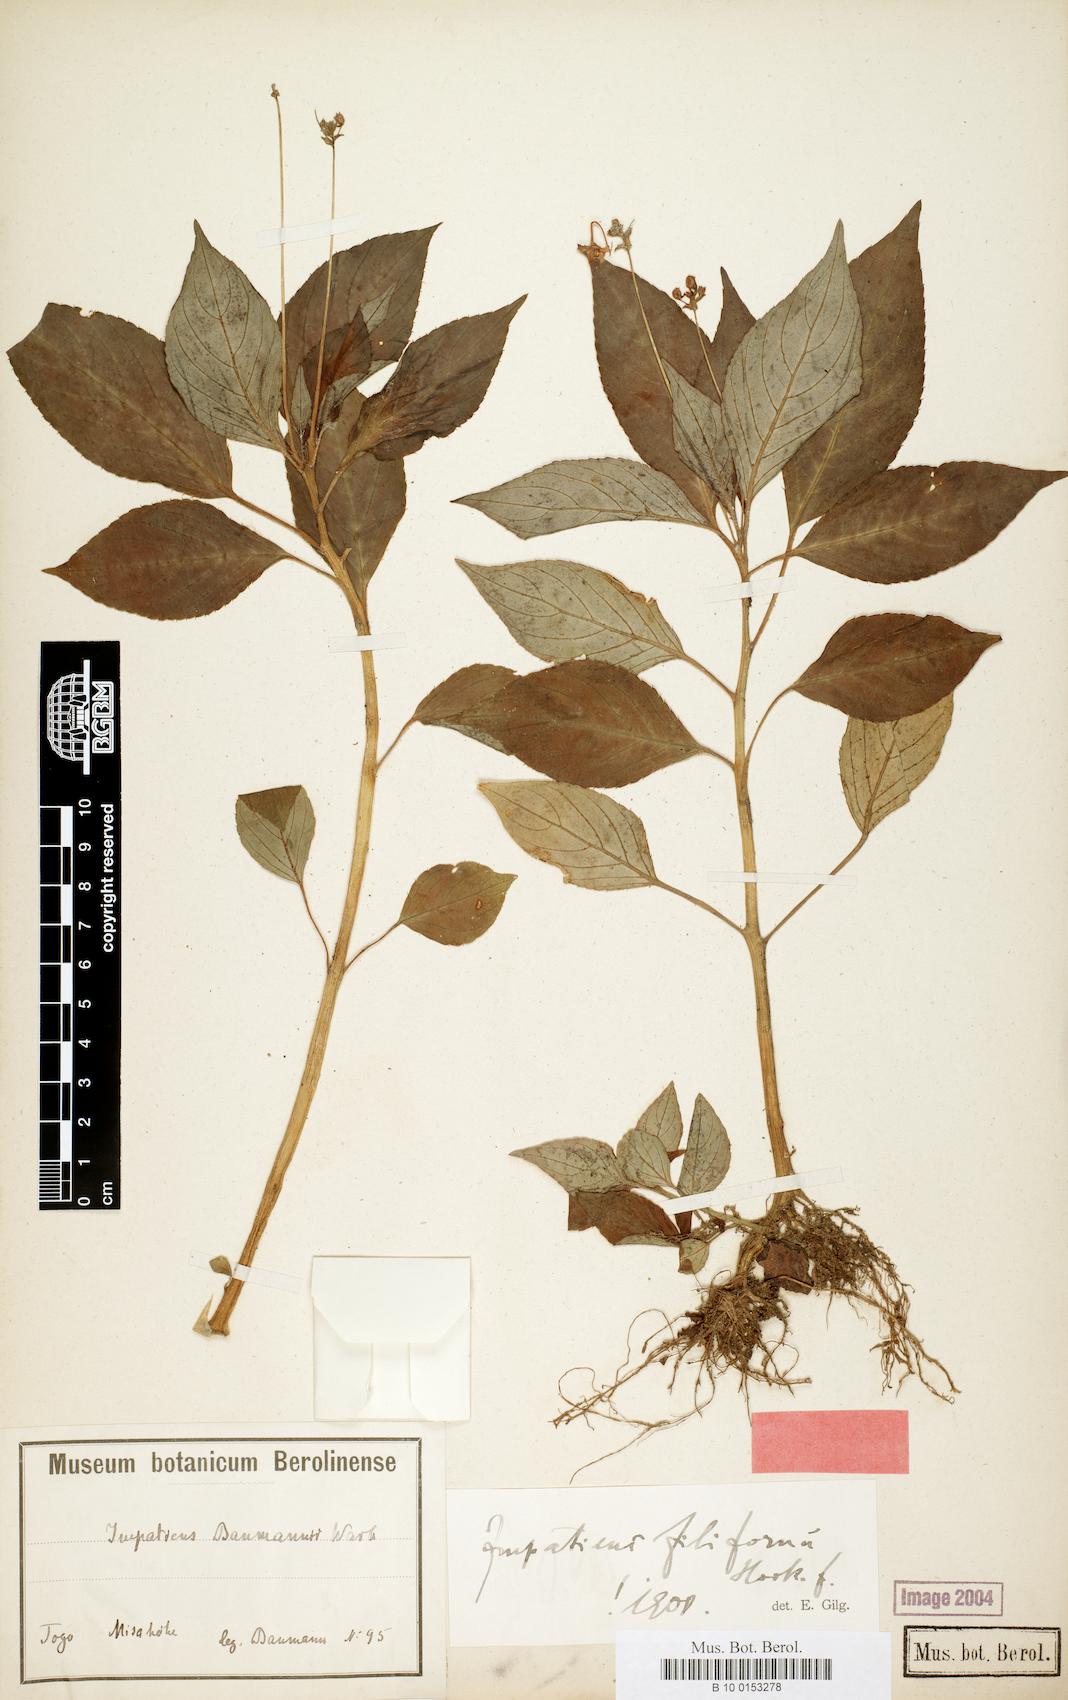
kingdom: Plantae
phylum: Tracheophyta
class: Magnoliopsida
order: Ericales
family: Balsaminaceae
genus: Impatiens
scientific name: Impatiens filicornu
